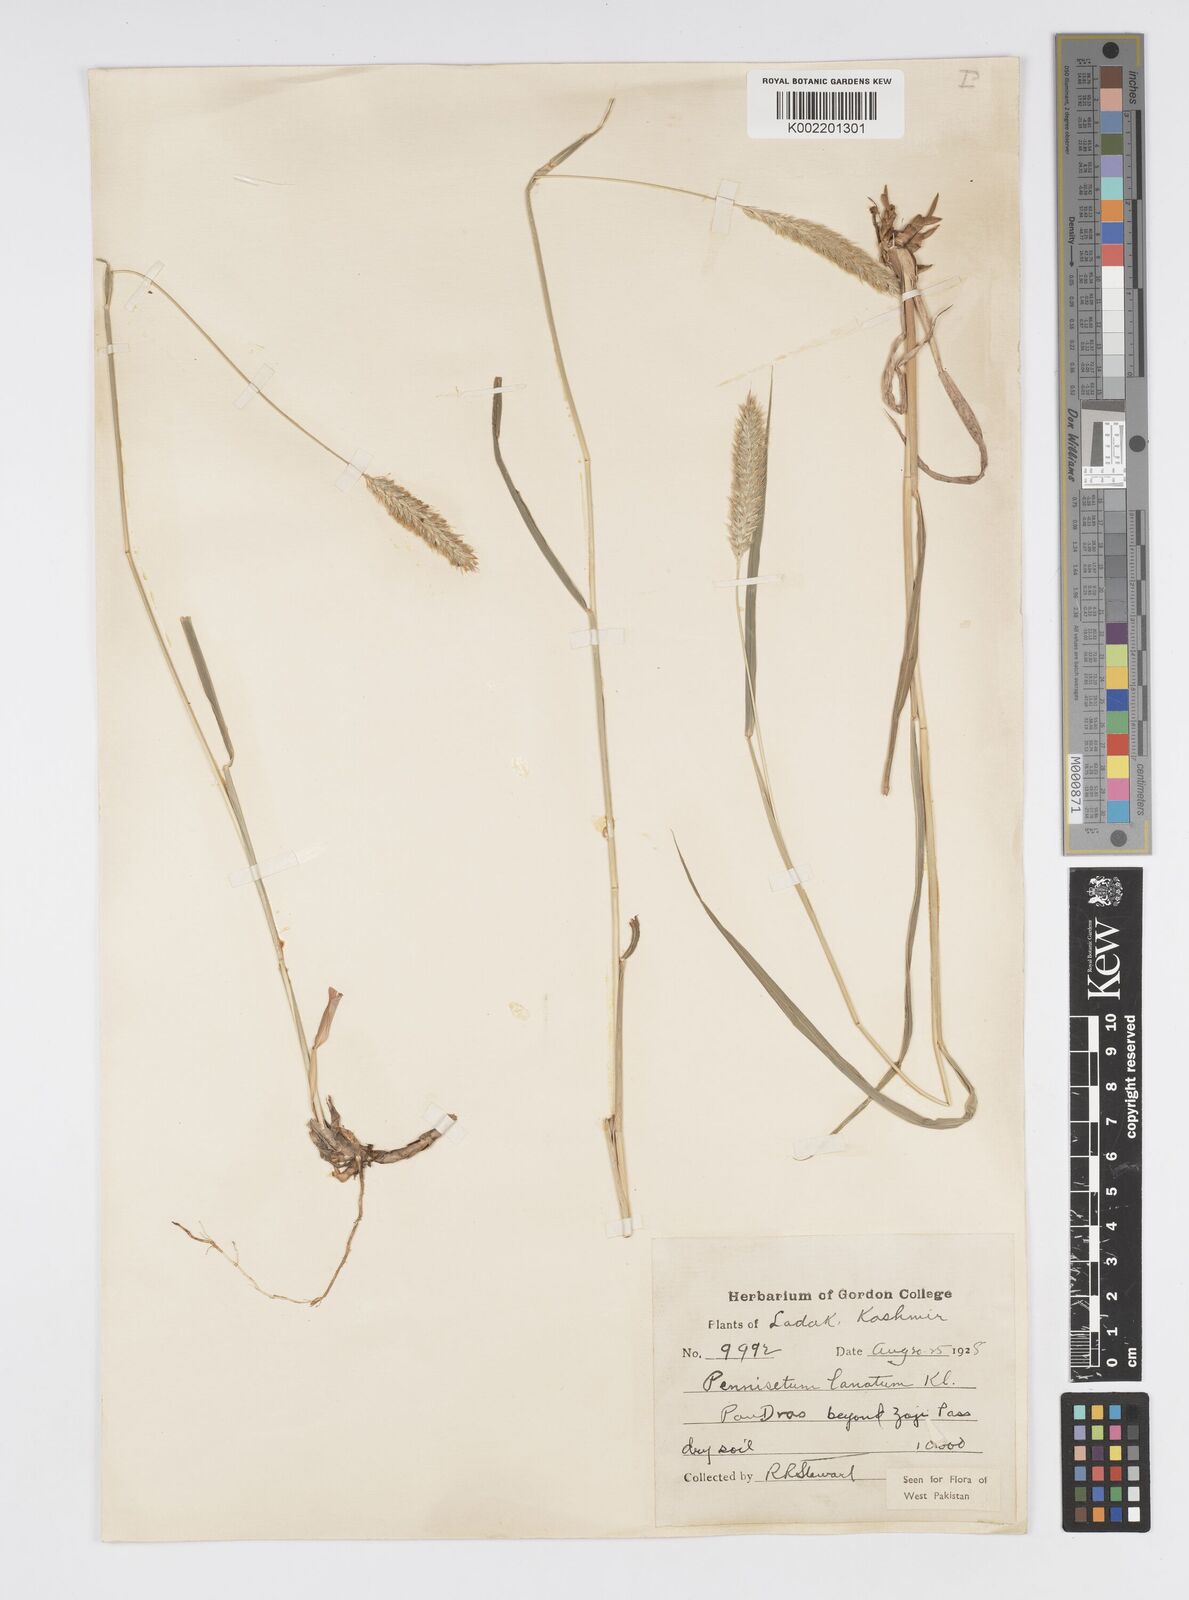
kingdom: Plantae
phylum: Tracheophyta
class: Liliopsida
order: Poales
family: Poaceae
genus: Cenchrus
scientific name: Cenchrus lanatus
